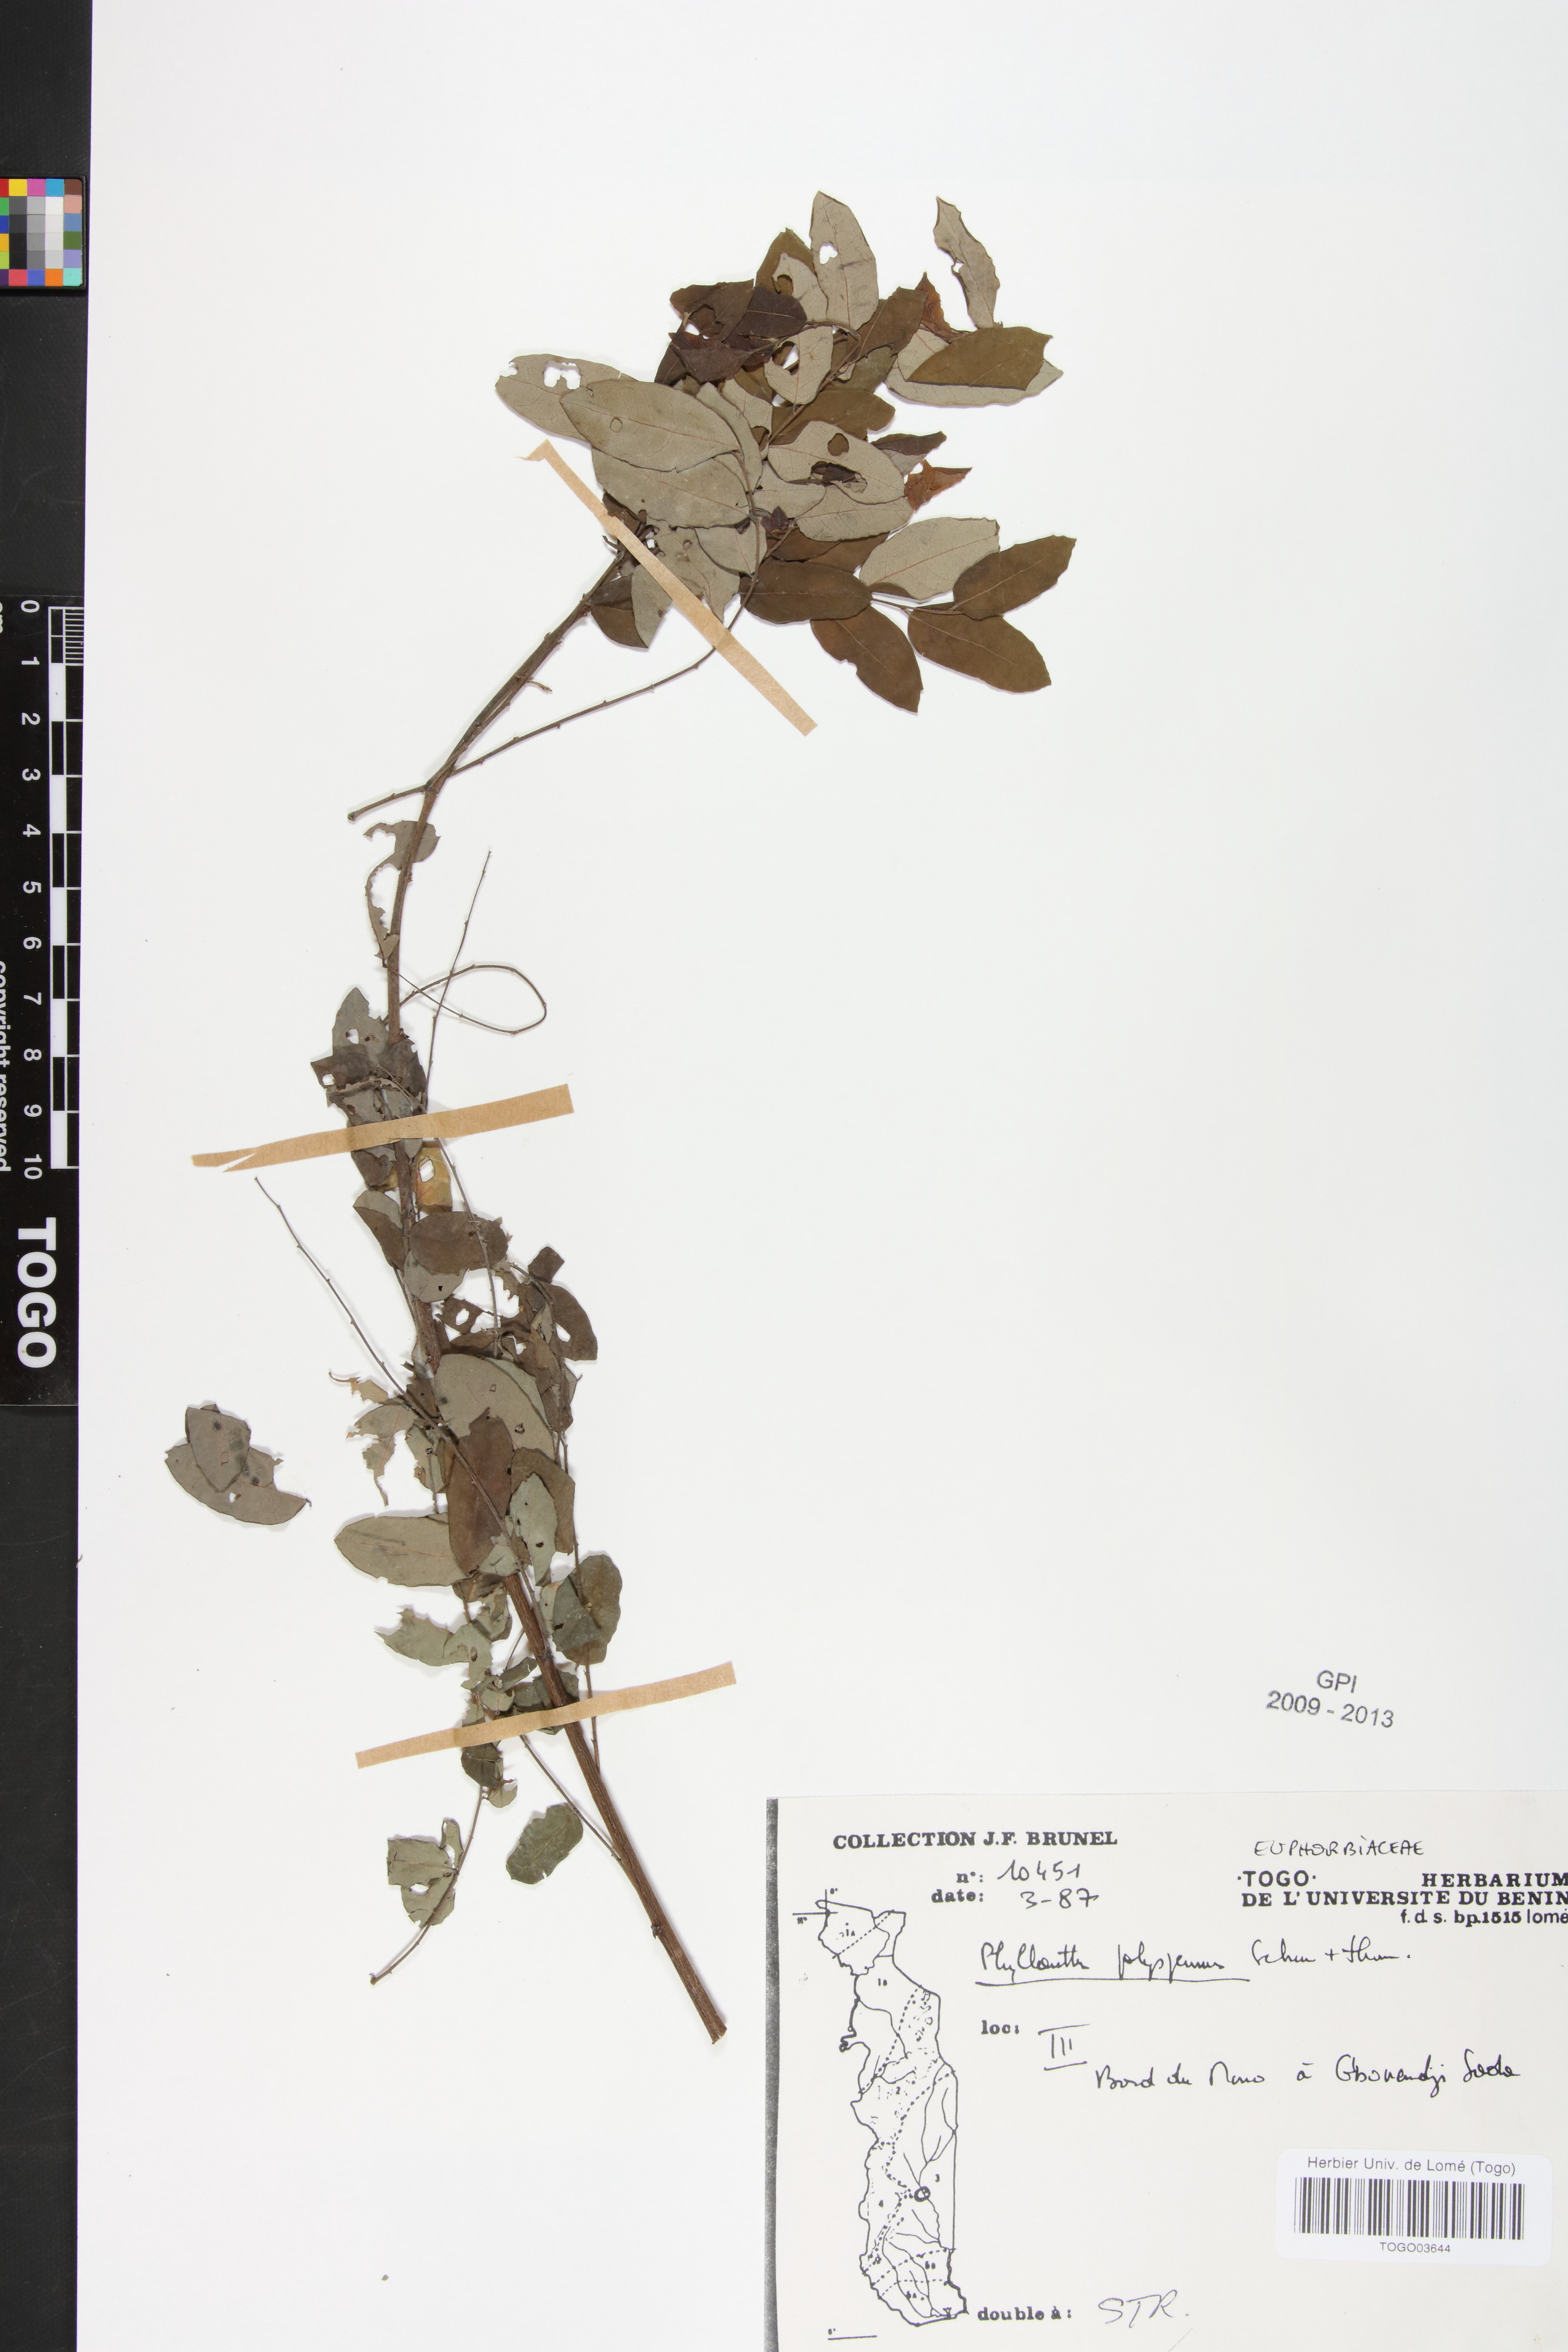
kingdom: Plantae
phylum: Tracheophyta
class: Magnoliopsida
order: Malpighiales
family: Phyllanthaceae
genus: Phyllanthus
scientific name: Phyllanthus polyspermus
